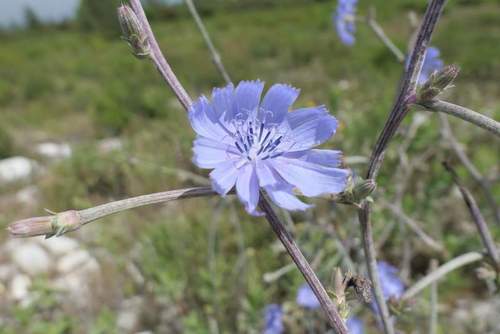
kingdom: Plantae
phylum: Tracheophyta
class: Magnoliopsida
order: Asterales
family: Asteraceae
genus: Cichorium
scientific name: Cichorium intybus
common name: Chicory
